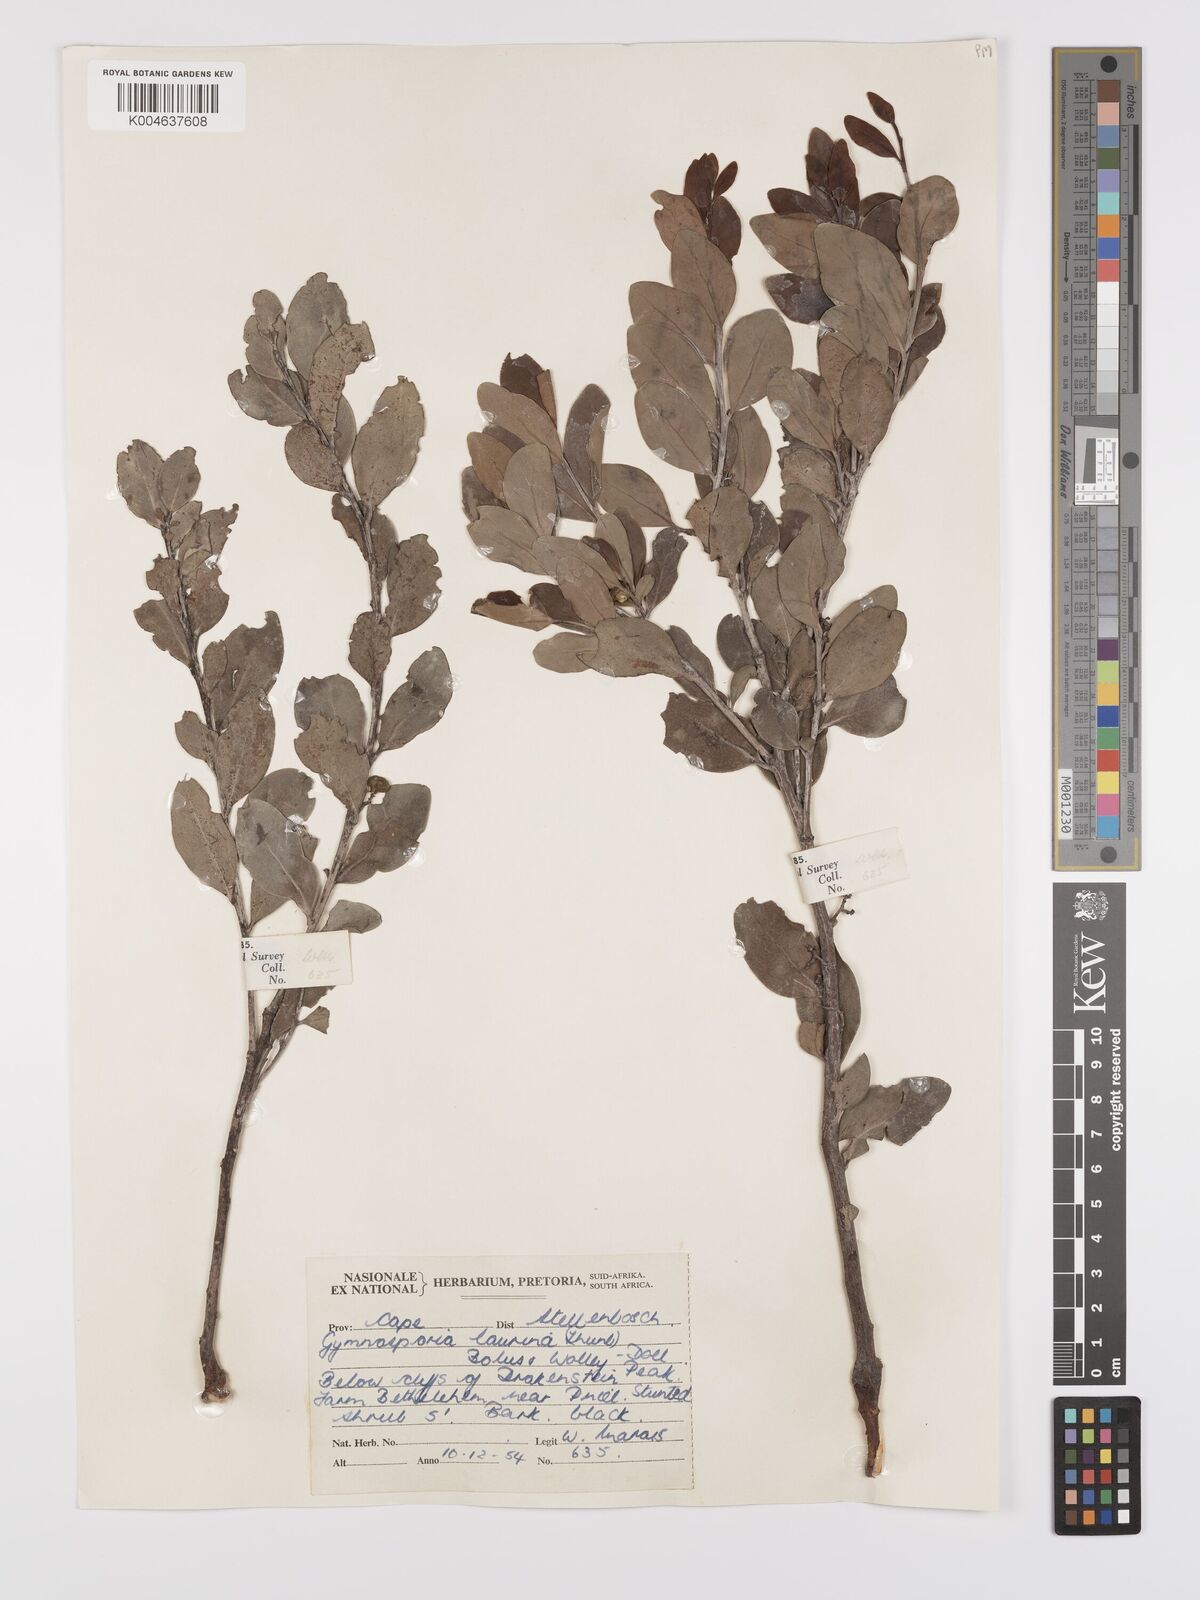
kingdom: Plantae
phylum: Tracheophyta
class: Magnoliopsida
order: Celastrales
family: Celastraceae
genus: Monteverdia
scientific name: Monteverdia laurina
